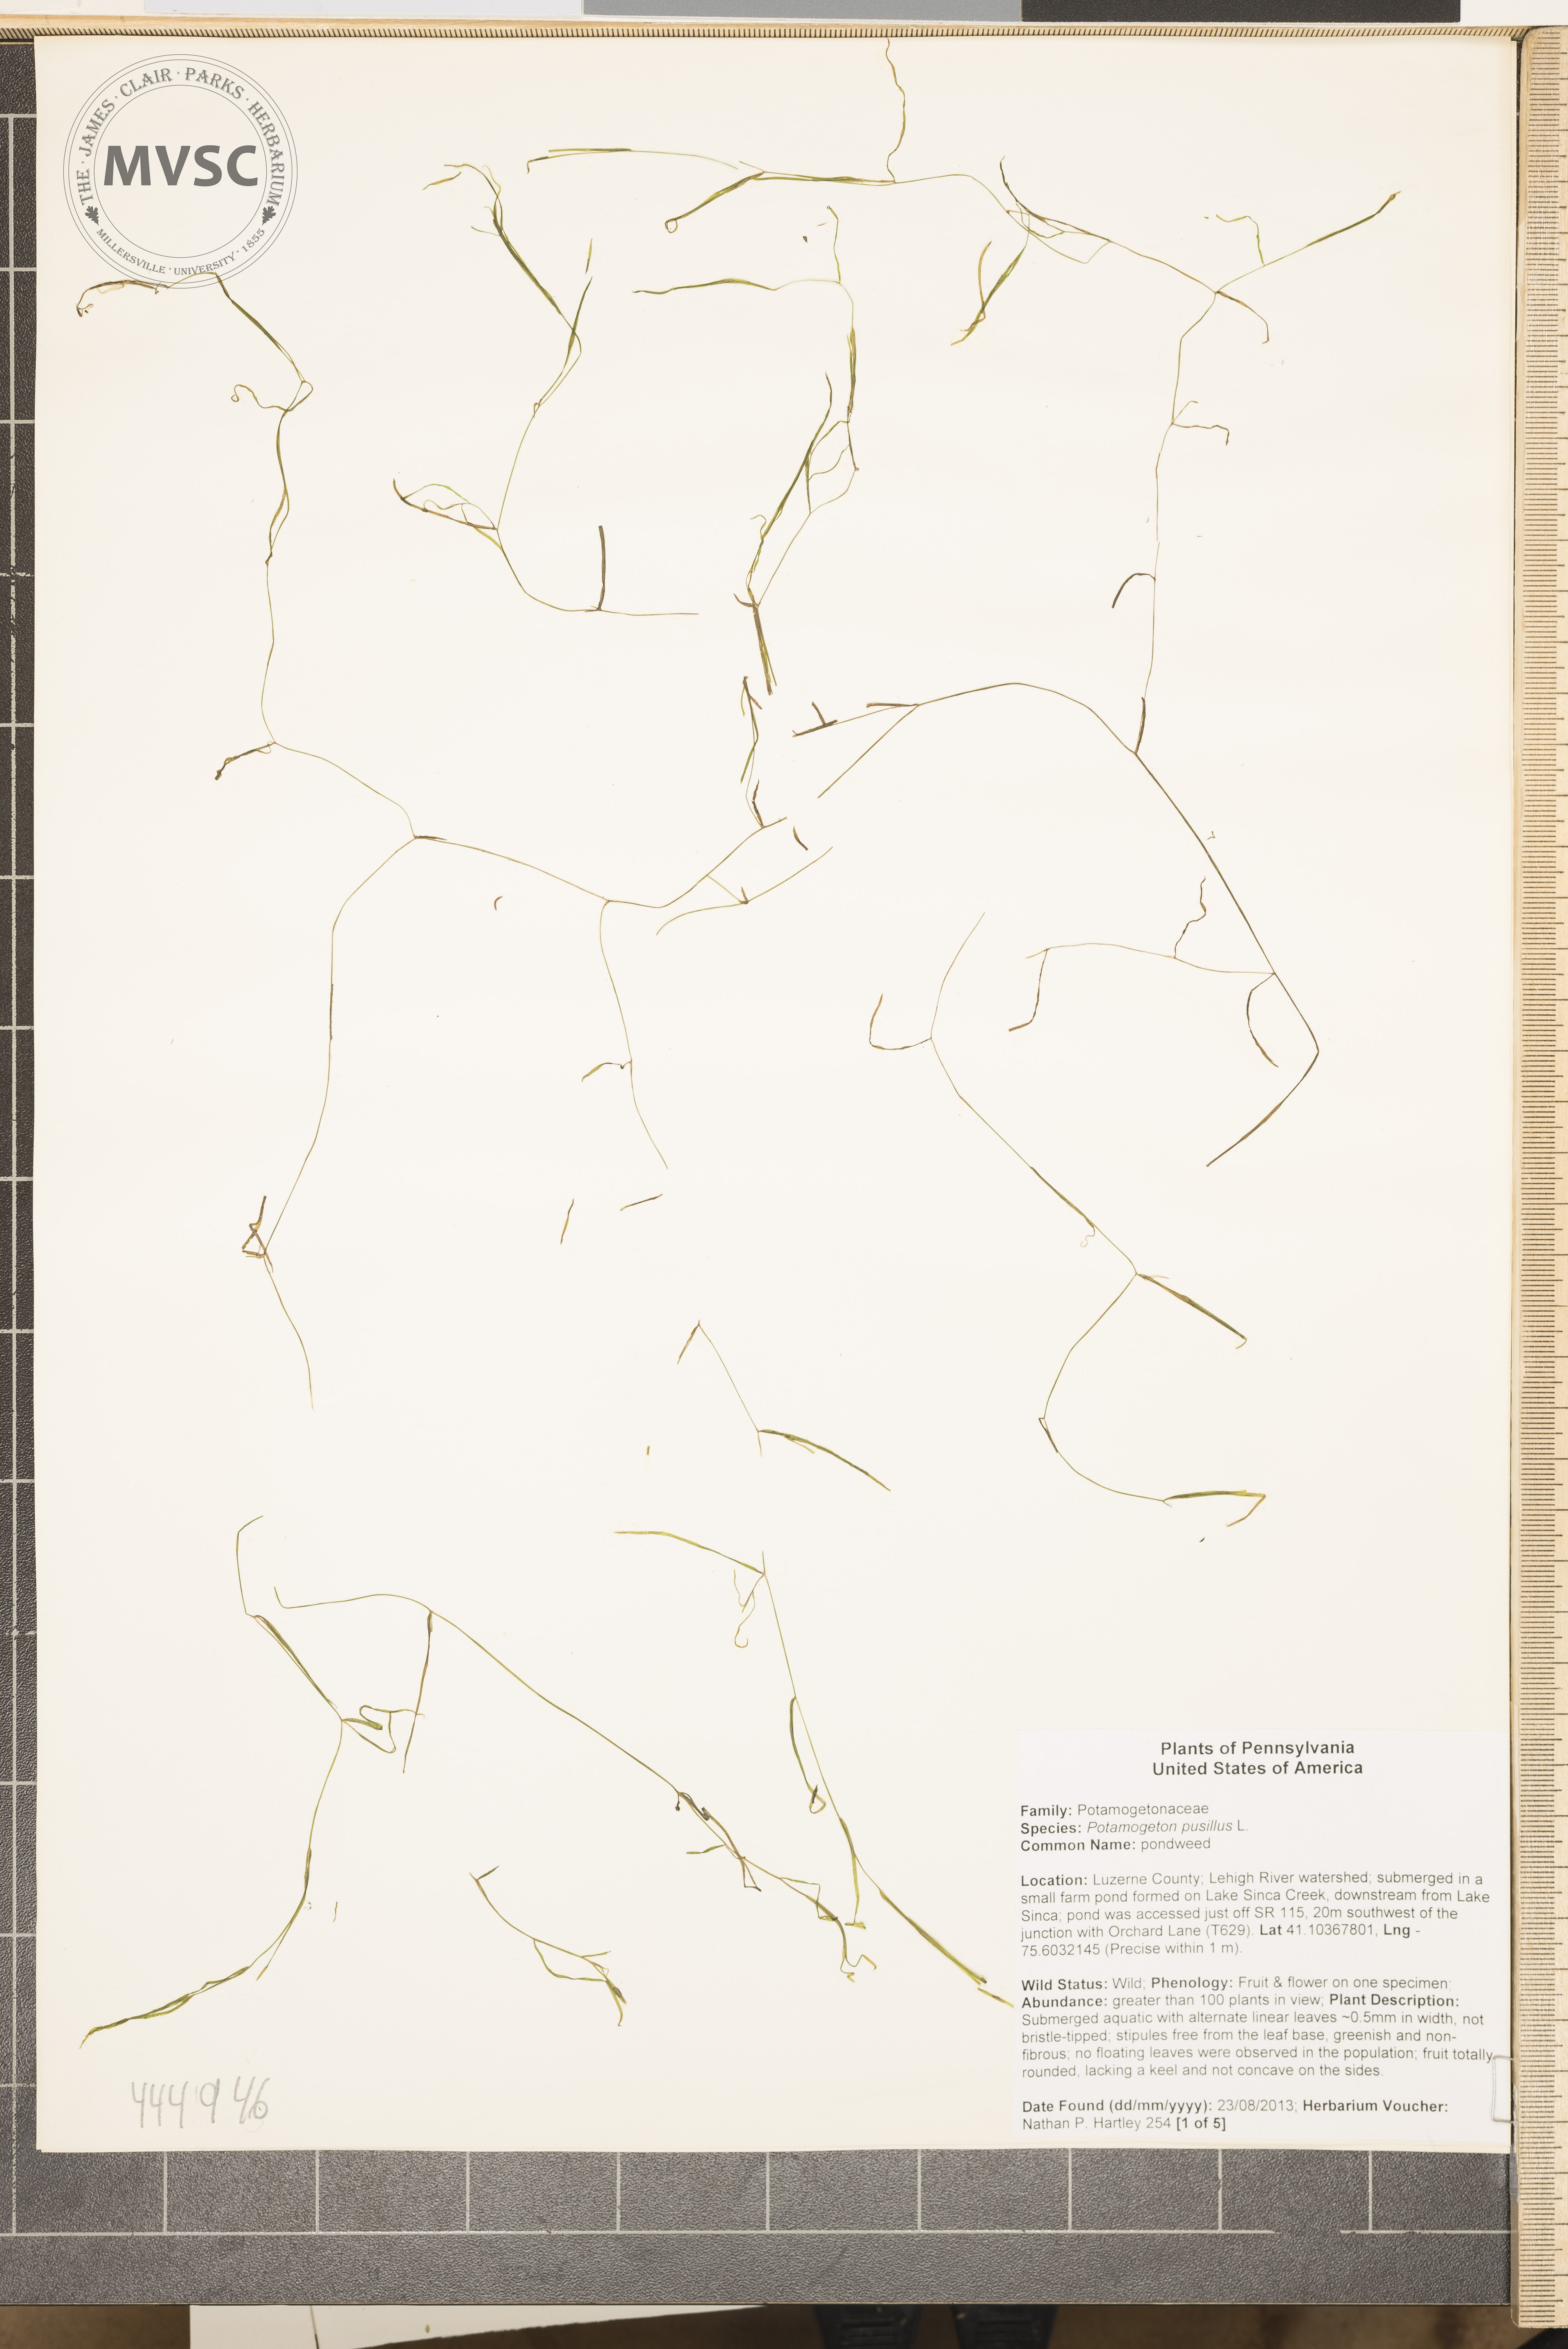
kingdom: Plantae
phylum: Tracheophyta
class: Liliopsida
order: Alismatales
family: Potamogetonaceae
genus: Potamogeton
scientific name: Potamogeton pusillus
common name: pondweed
